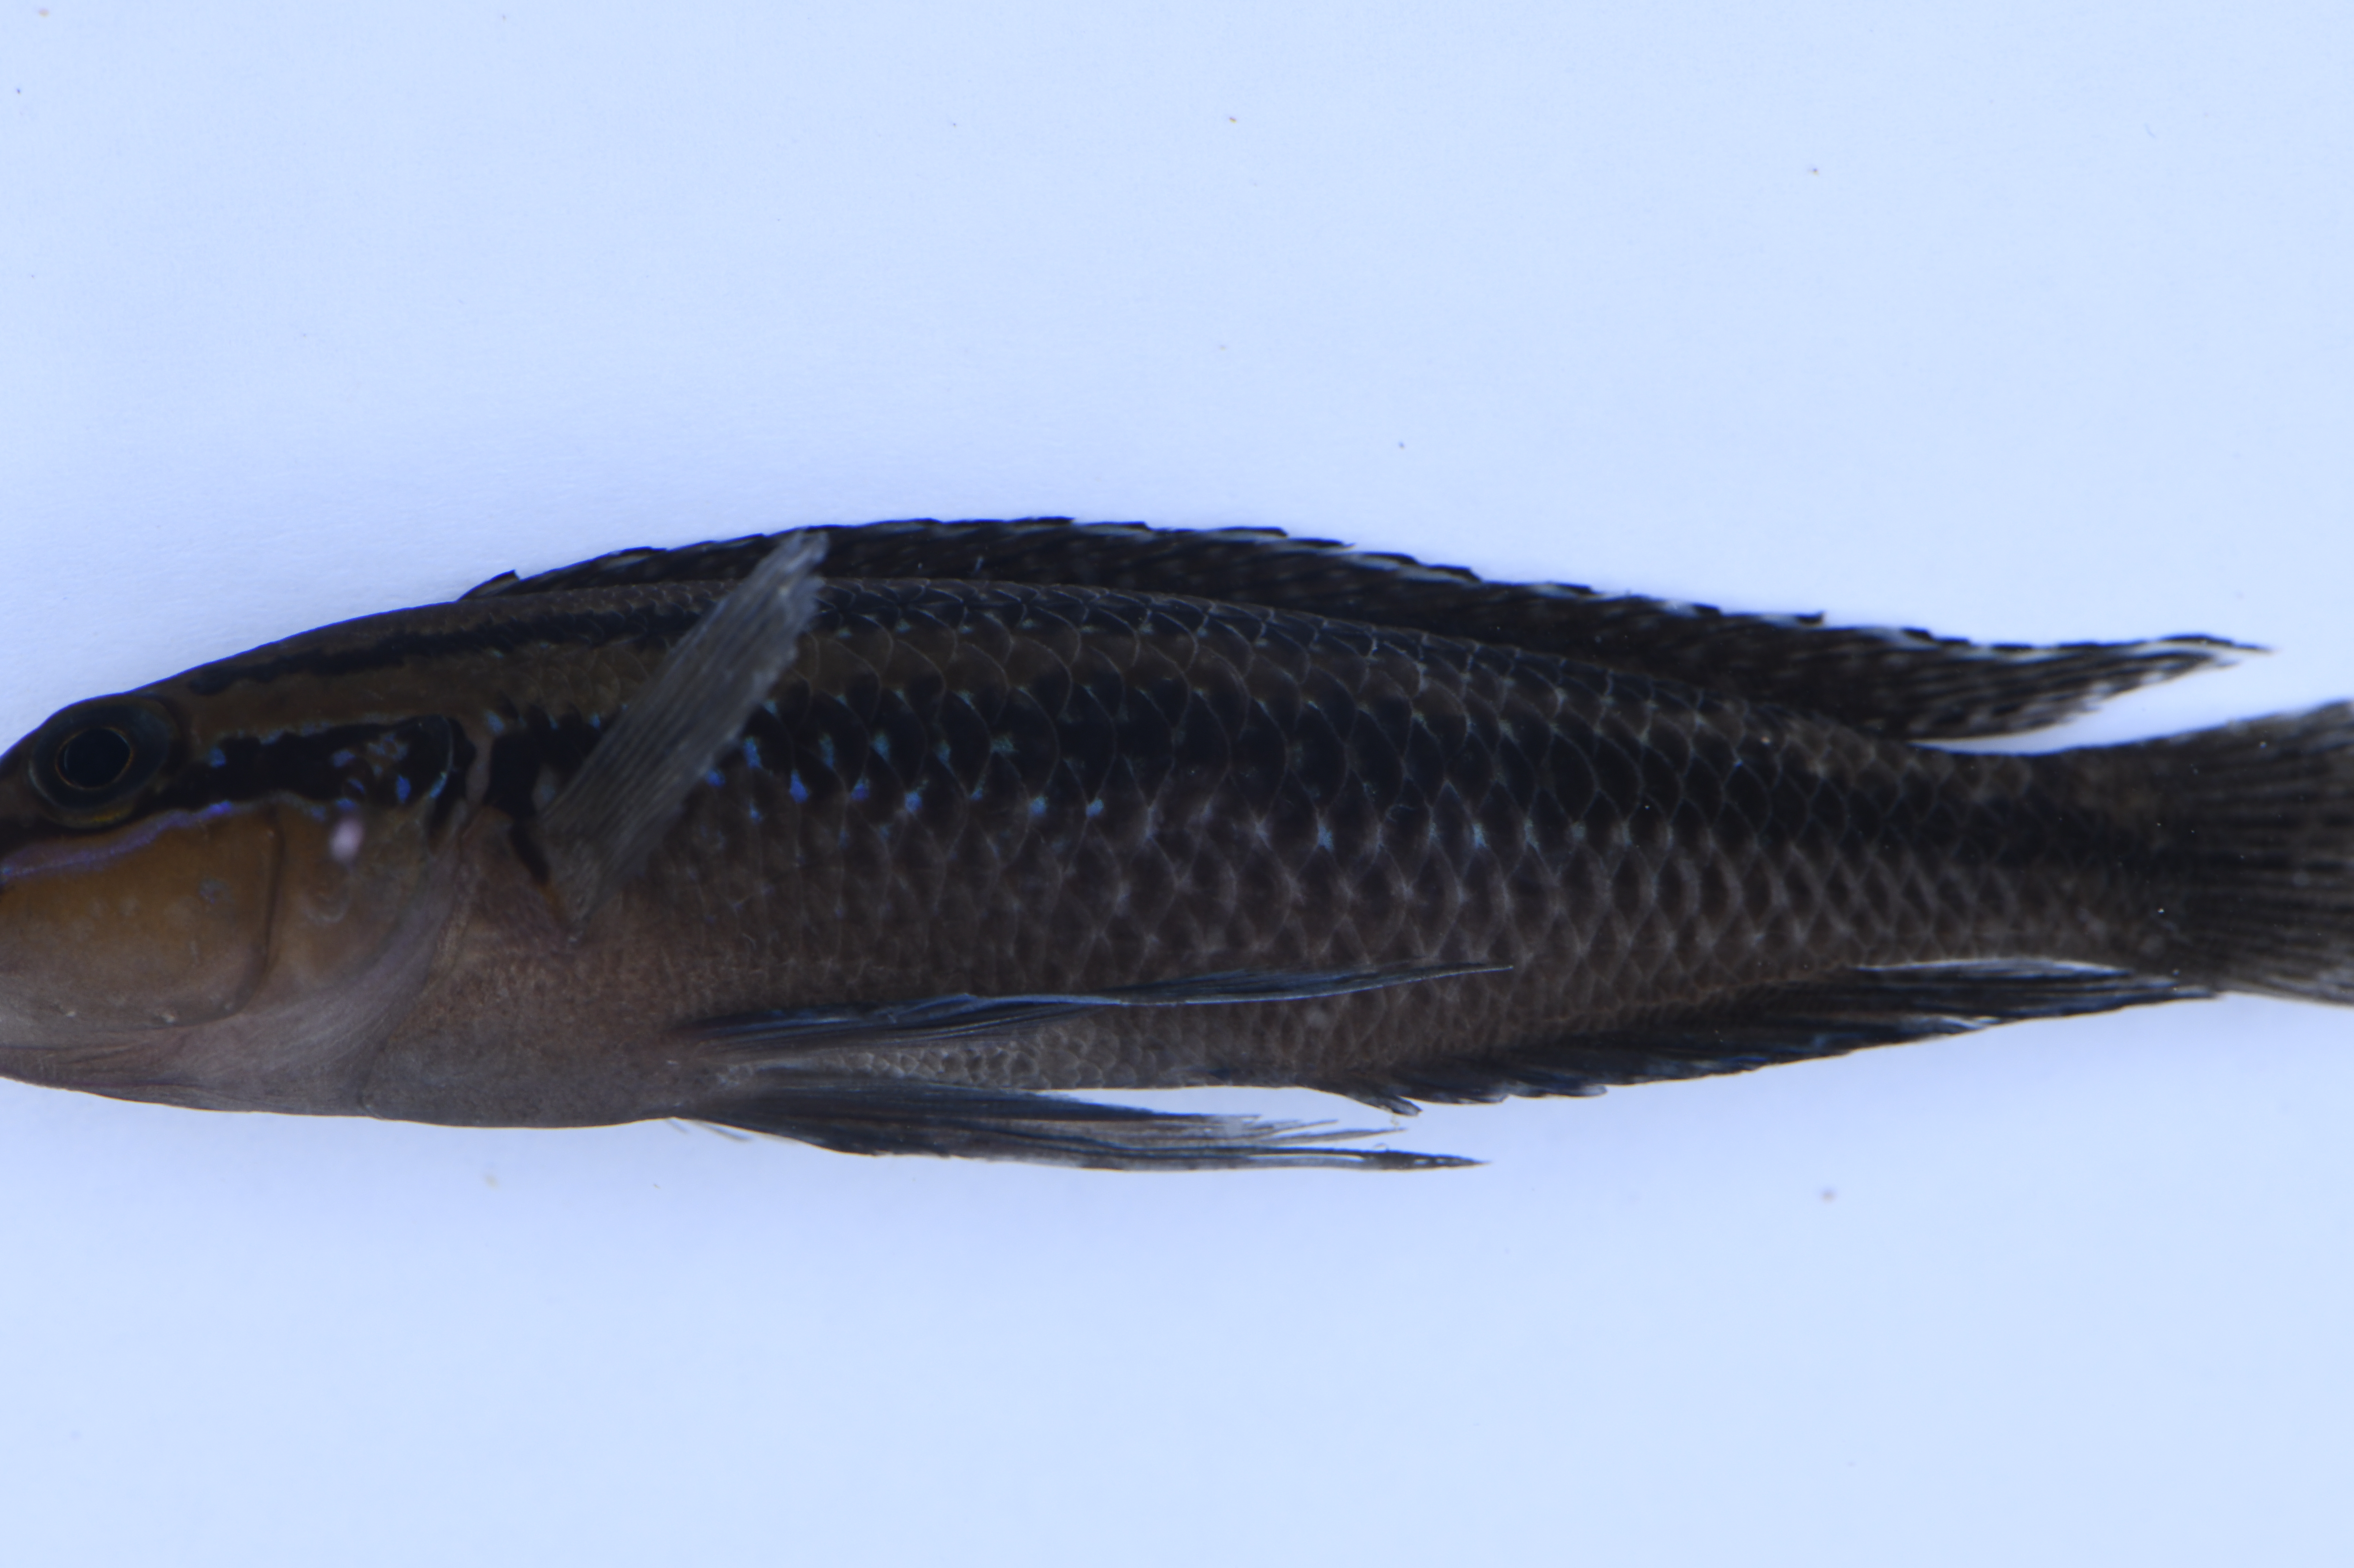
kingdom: Animalia
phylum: Chordata
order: Perciformes
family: Cichlidae
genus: Julidochromis
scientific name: Julidochromis dickfeldi
